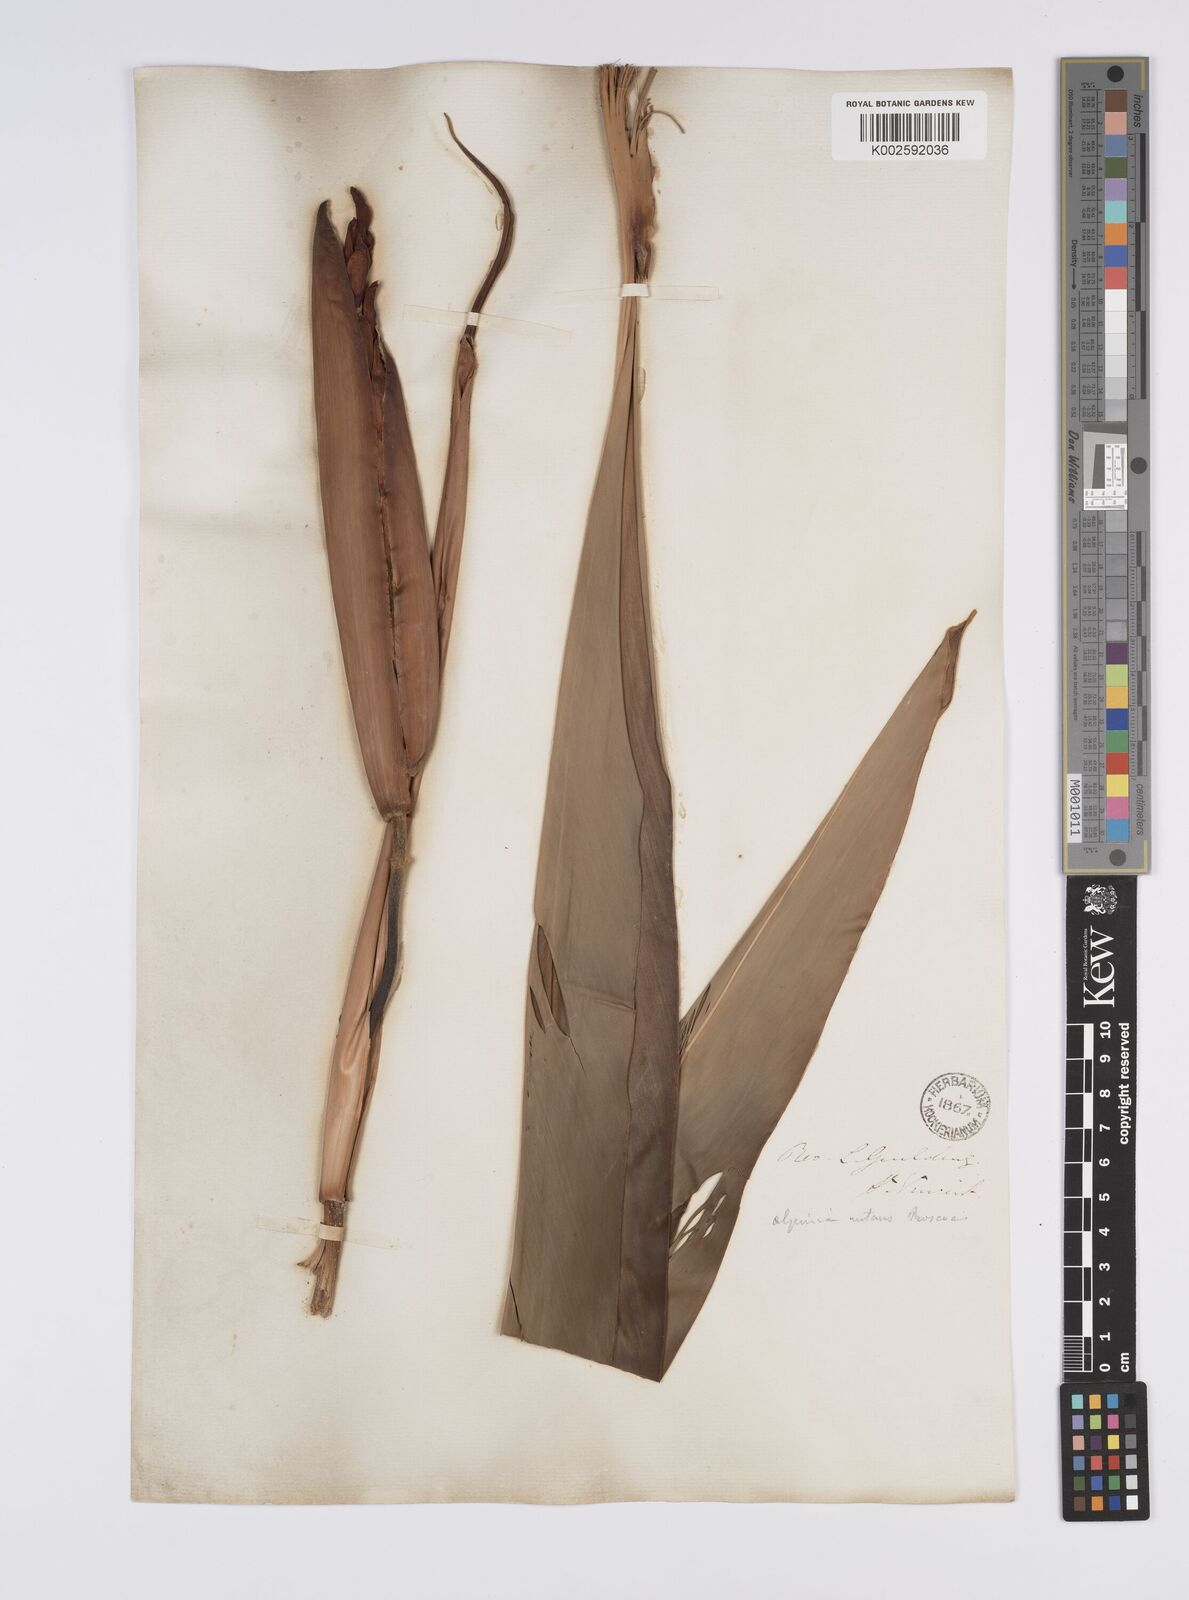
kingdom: Plantae
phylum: Tracheophyta
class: Liliopsida
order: Zingiberales
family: Zingiberaceae
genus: Alpinia
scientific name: Alpinia zerumbet
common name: Shellplant
